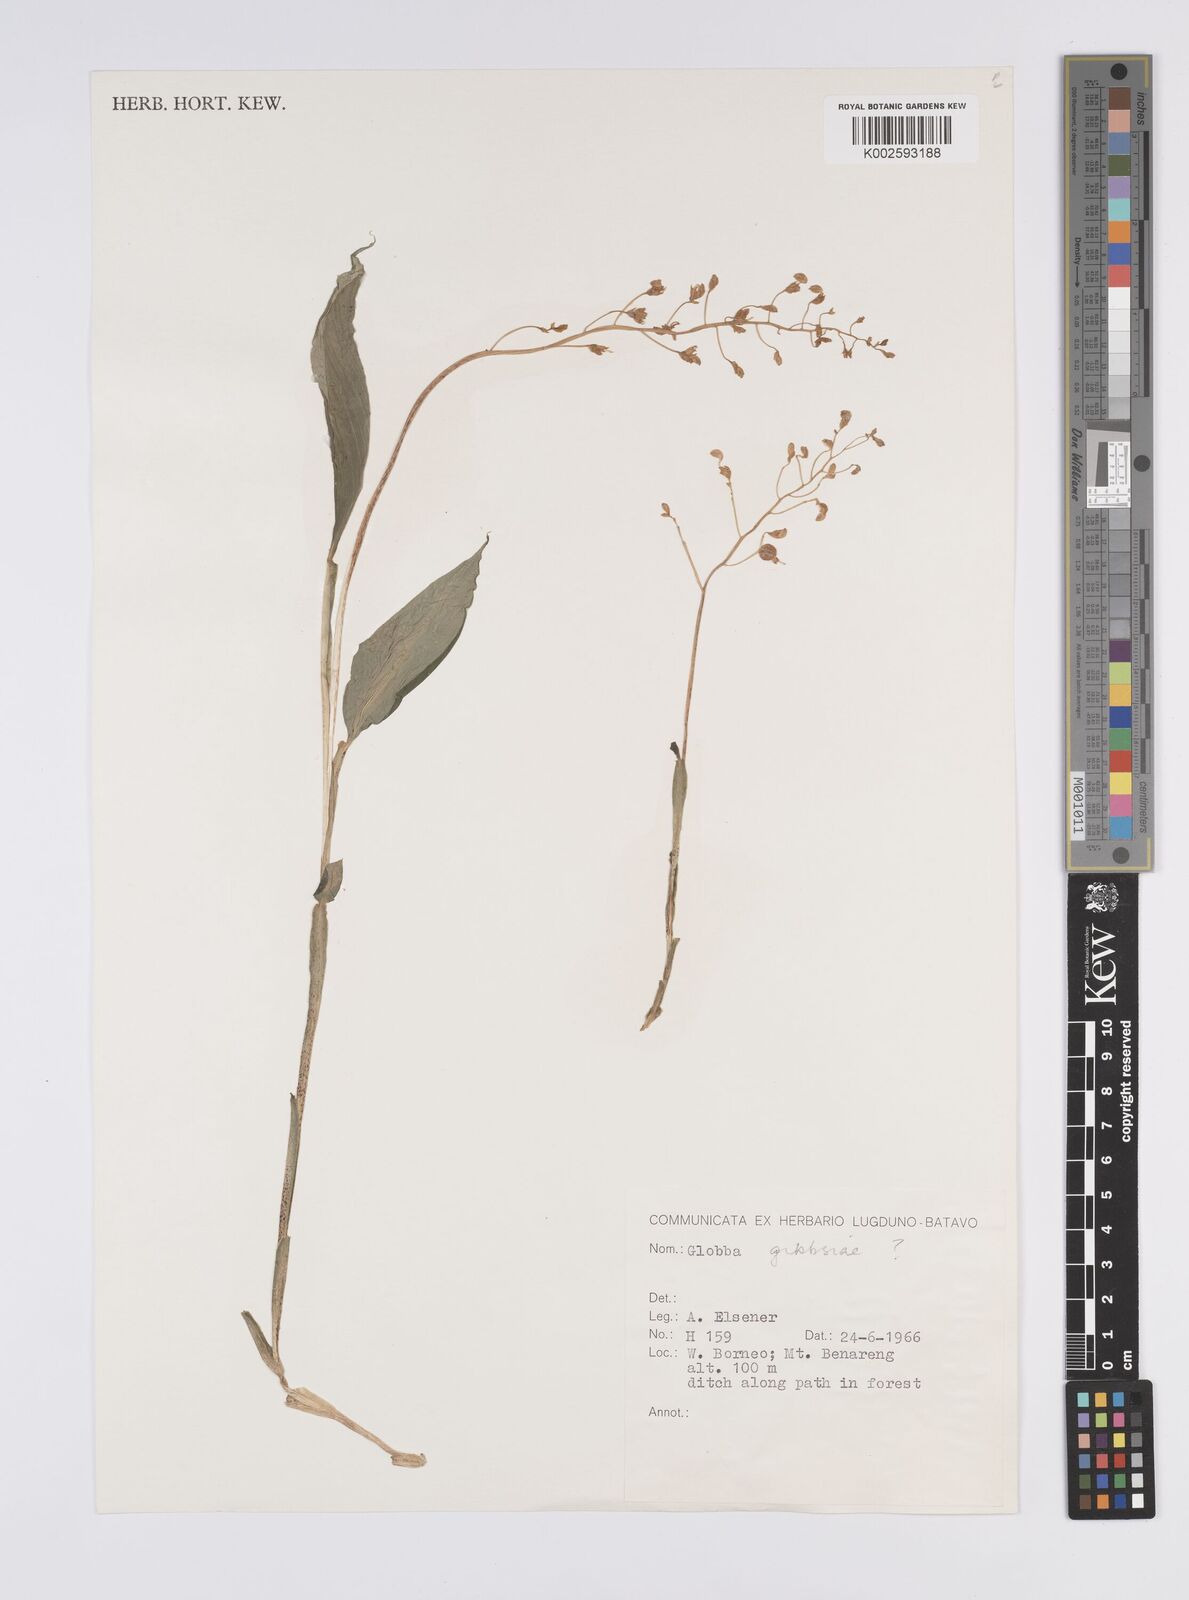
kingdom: Plantae
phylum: Tracheophyta
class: Liliopsida
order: Zingiberales
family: Zingiberaceae
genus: Globba
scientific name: Globba
